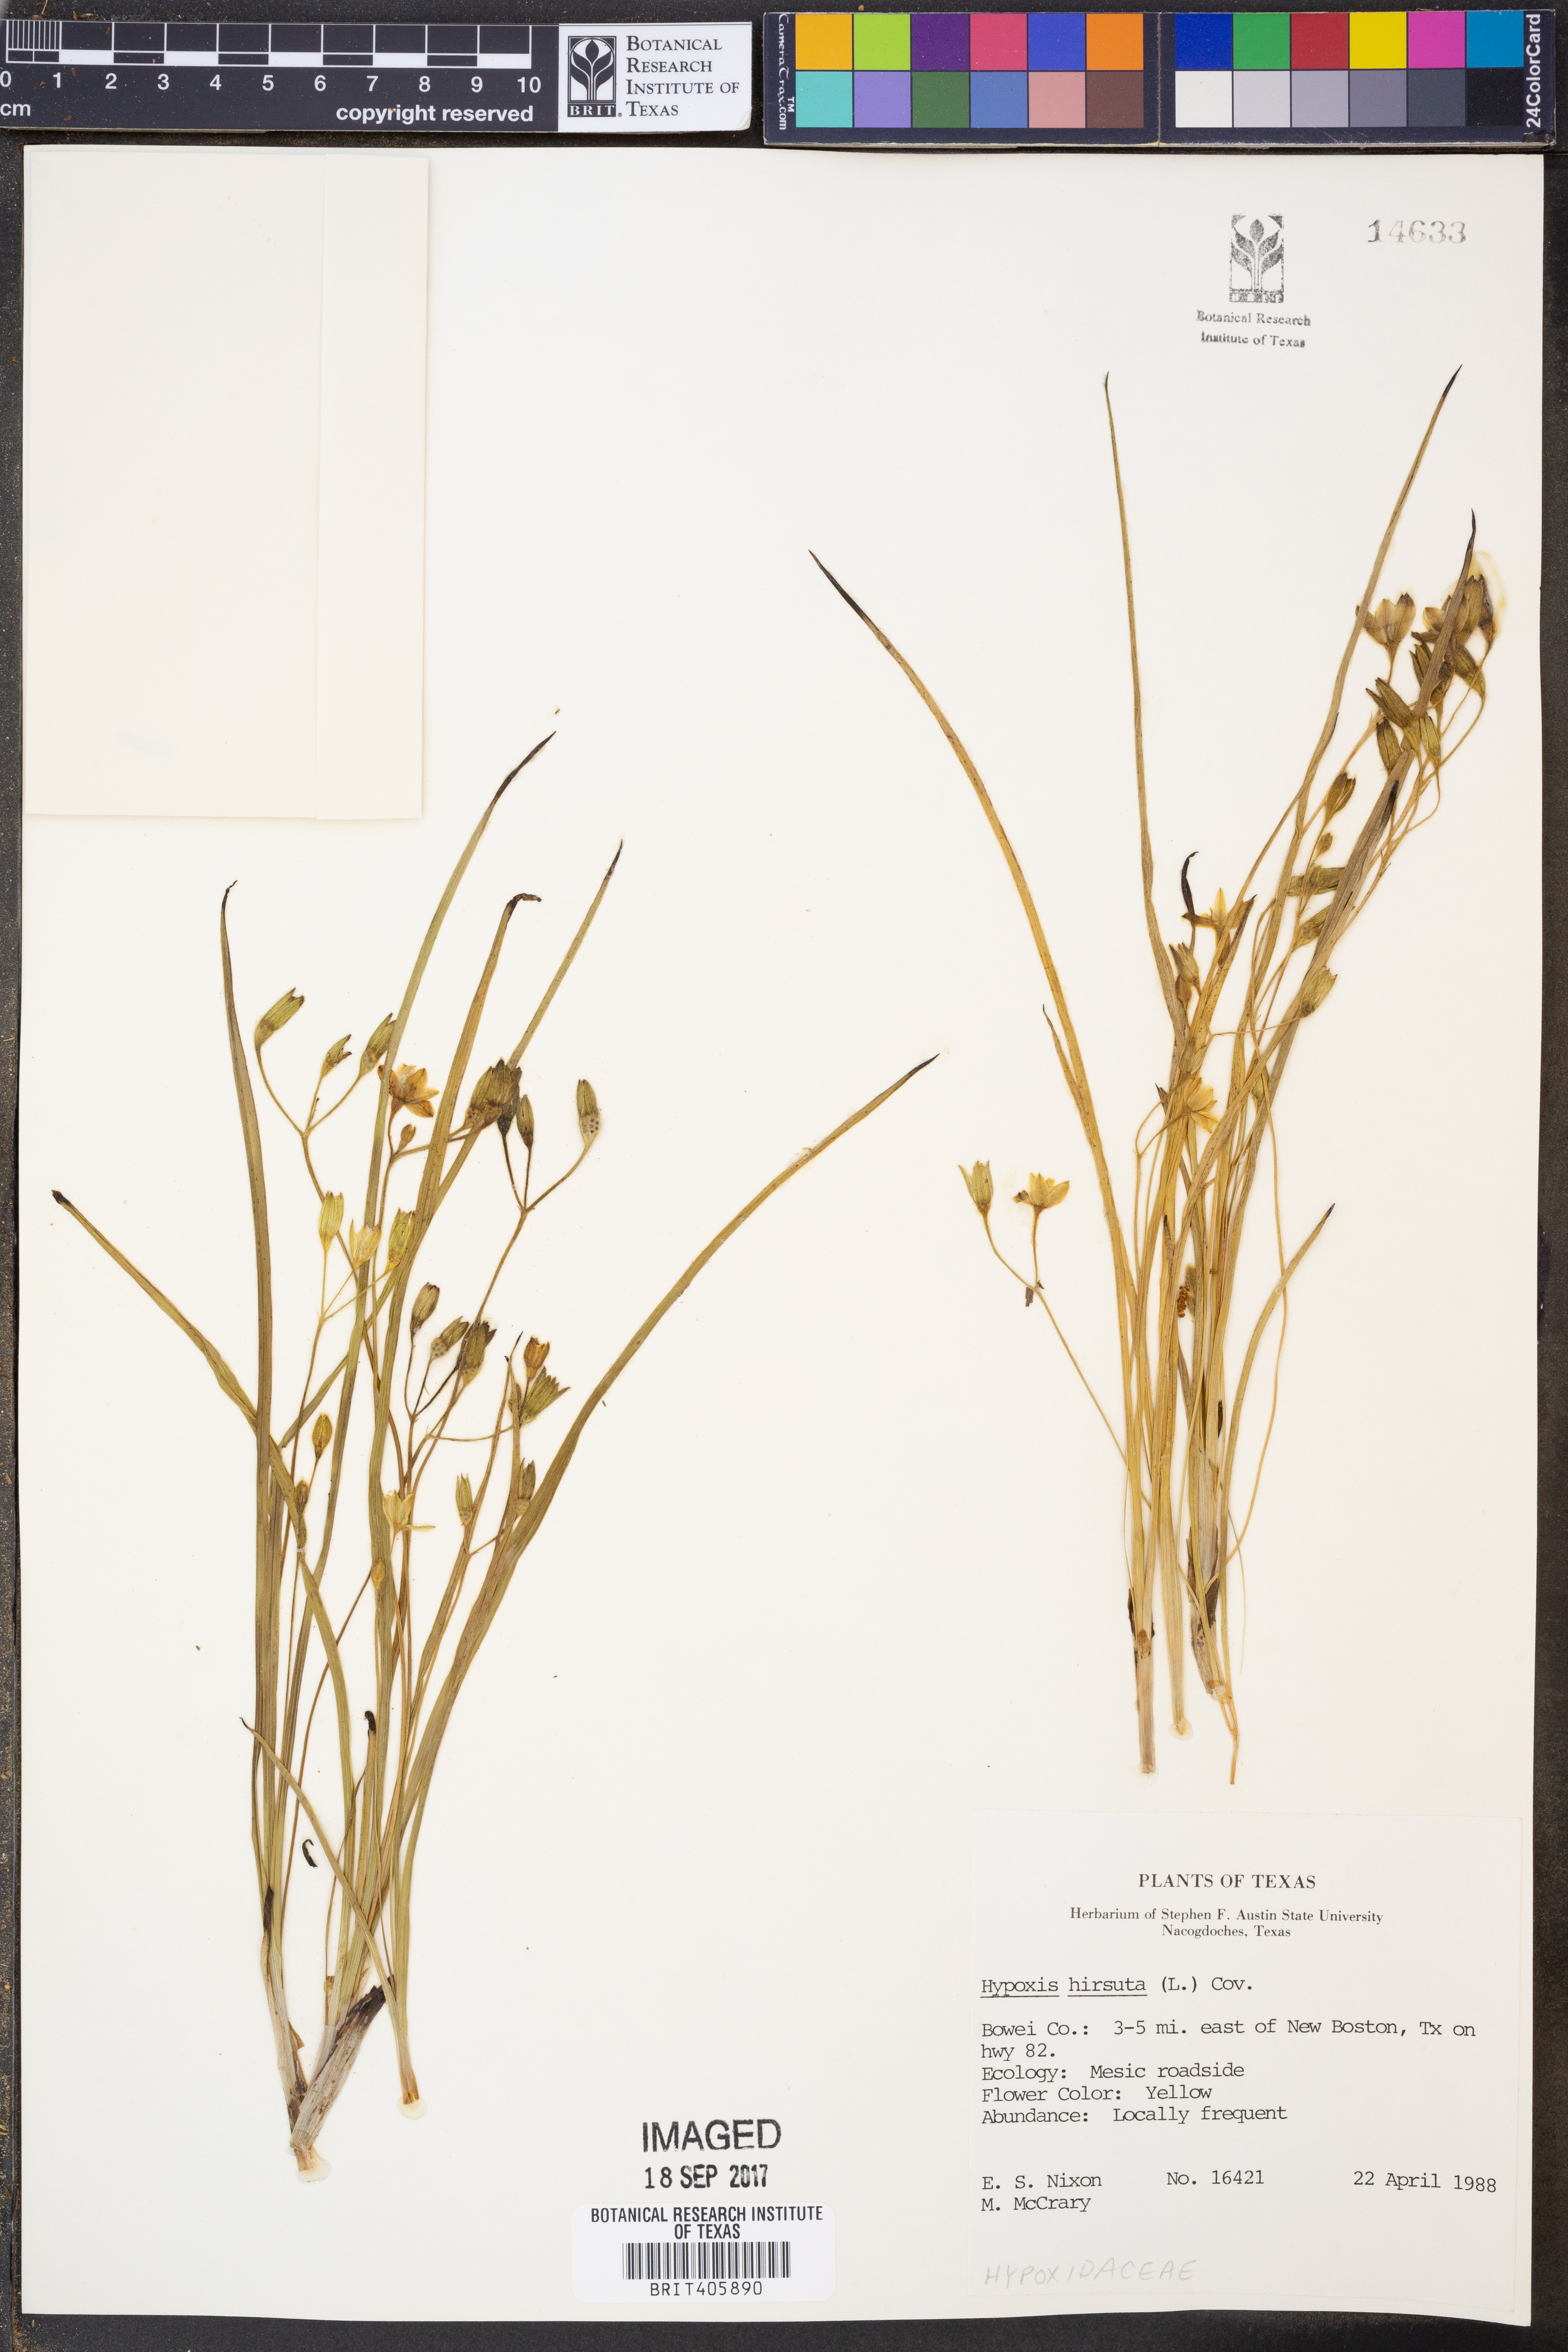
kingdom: Plantae
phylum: Tracheophyta
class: Liliopsida
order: Asparagales
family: Hypoxidaceae
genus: Hypoxis
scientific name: Hypoxis hirsuta
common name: Common goldstar
